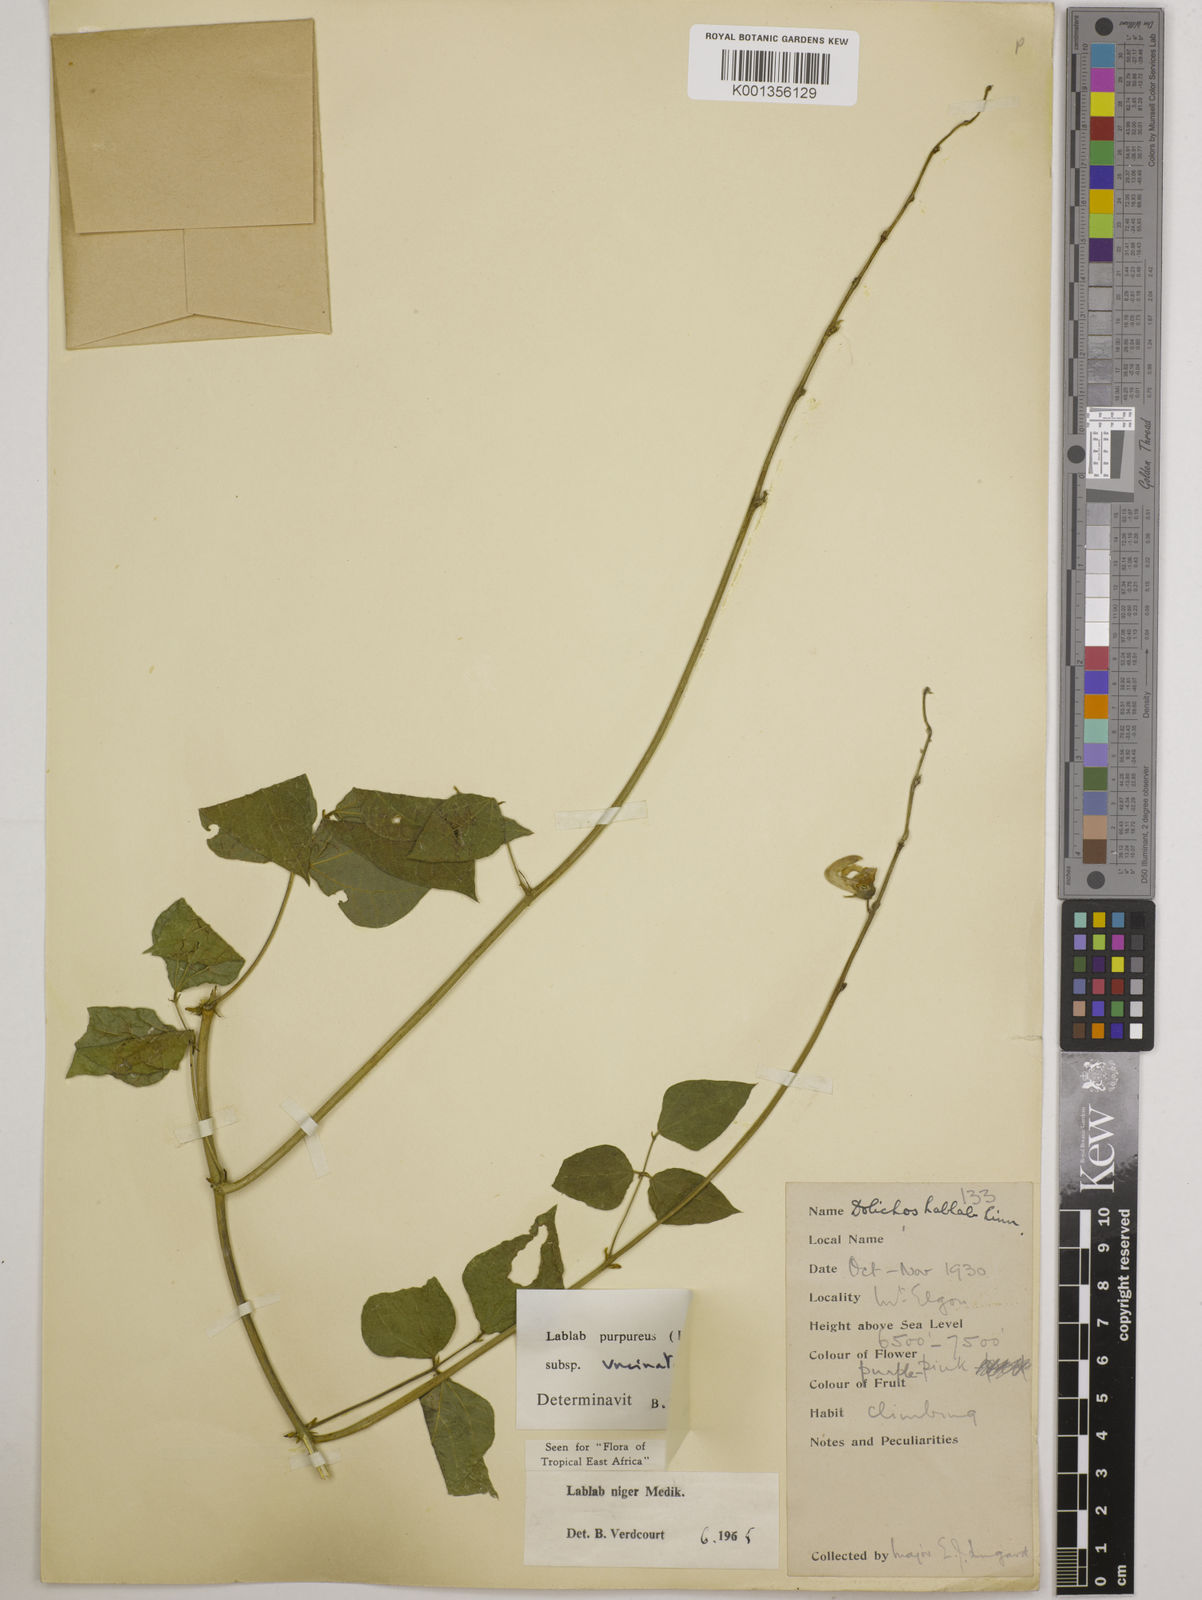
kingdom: Plantae
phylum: Tracheophyta
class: Magnoliopsida
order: Fabales
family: Fabaceae
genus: Lablab
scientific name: Lablab purpureus
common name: Lablab-bean
